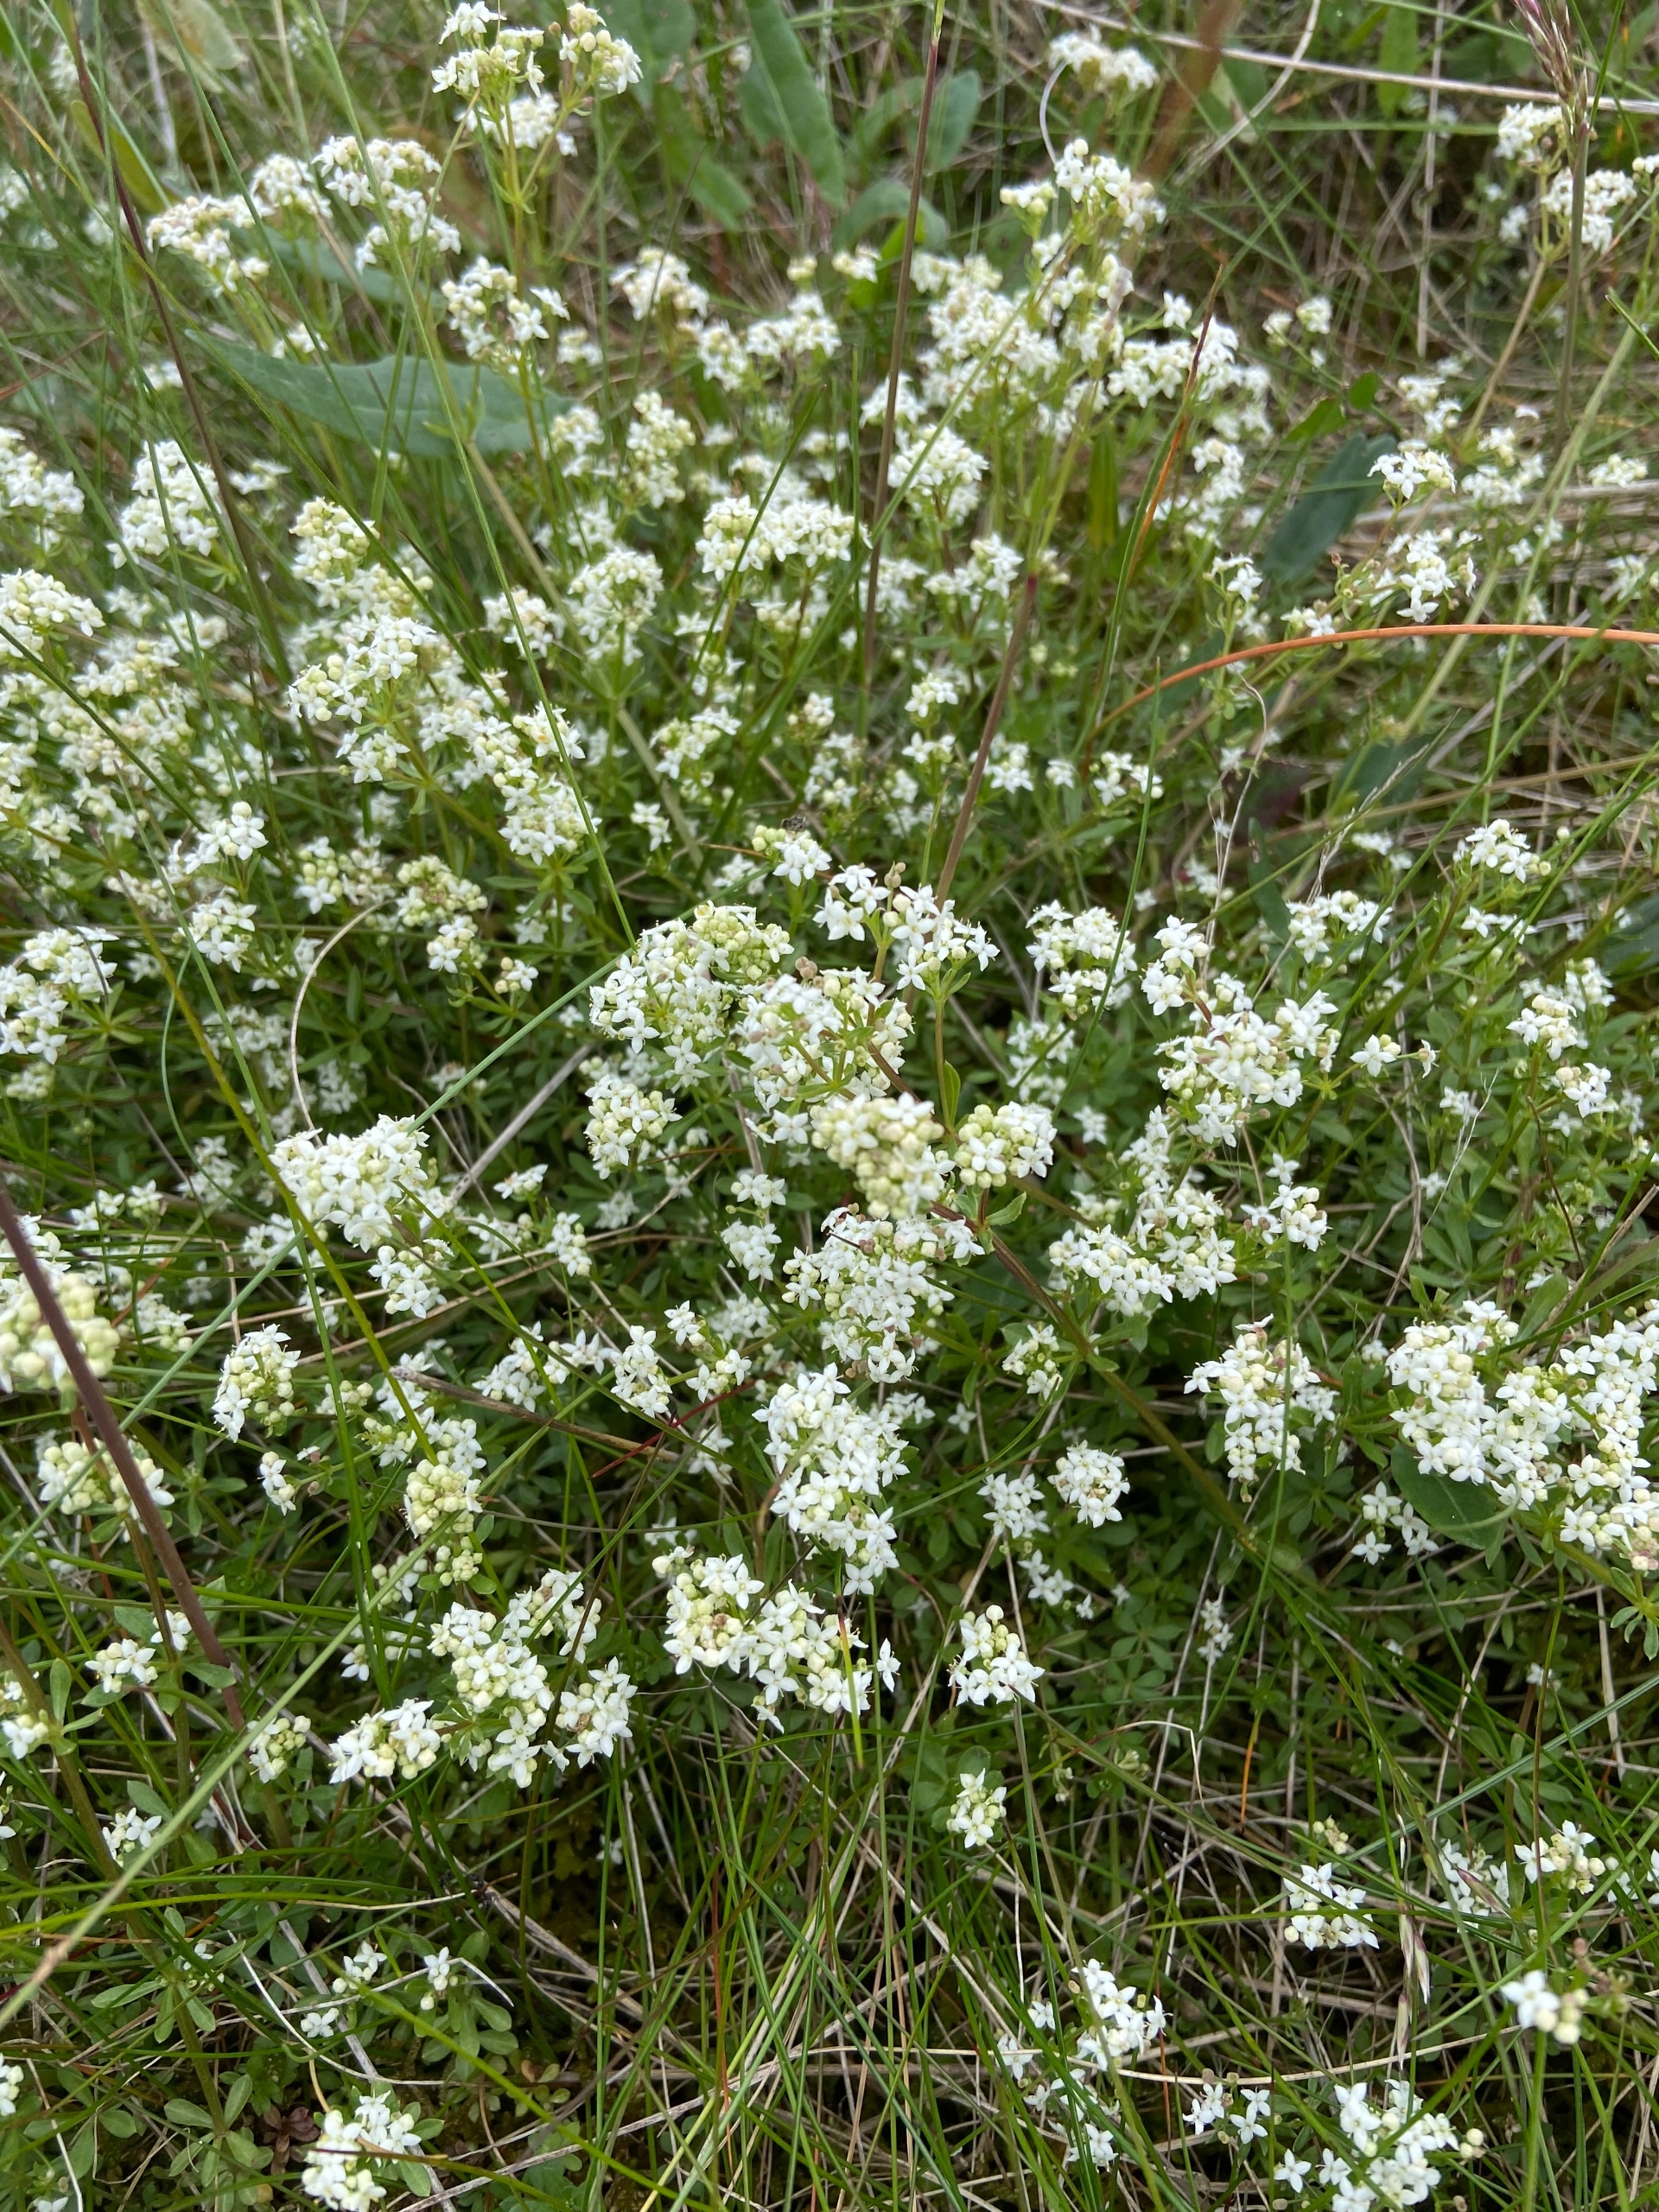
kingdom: Plantae
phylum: Tracheophyta
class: Magnoliopsida
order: Gentianales
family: Rubiaceae
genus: Galium
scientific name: Galium saxatile
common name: Lyng-snerre
